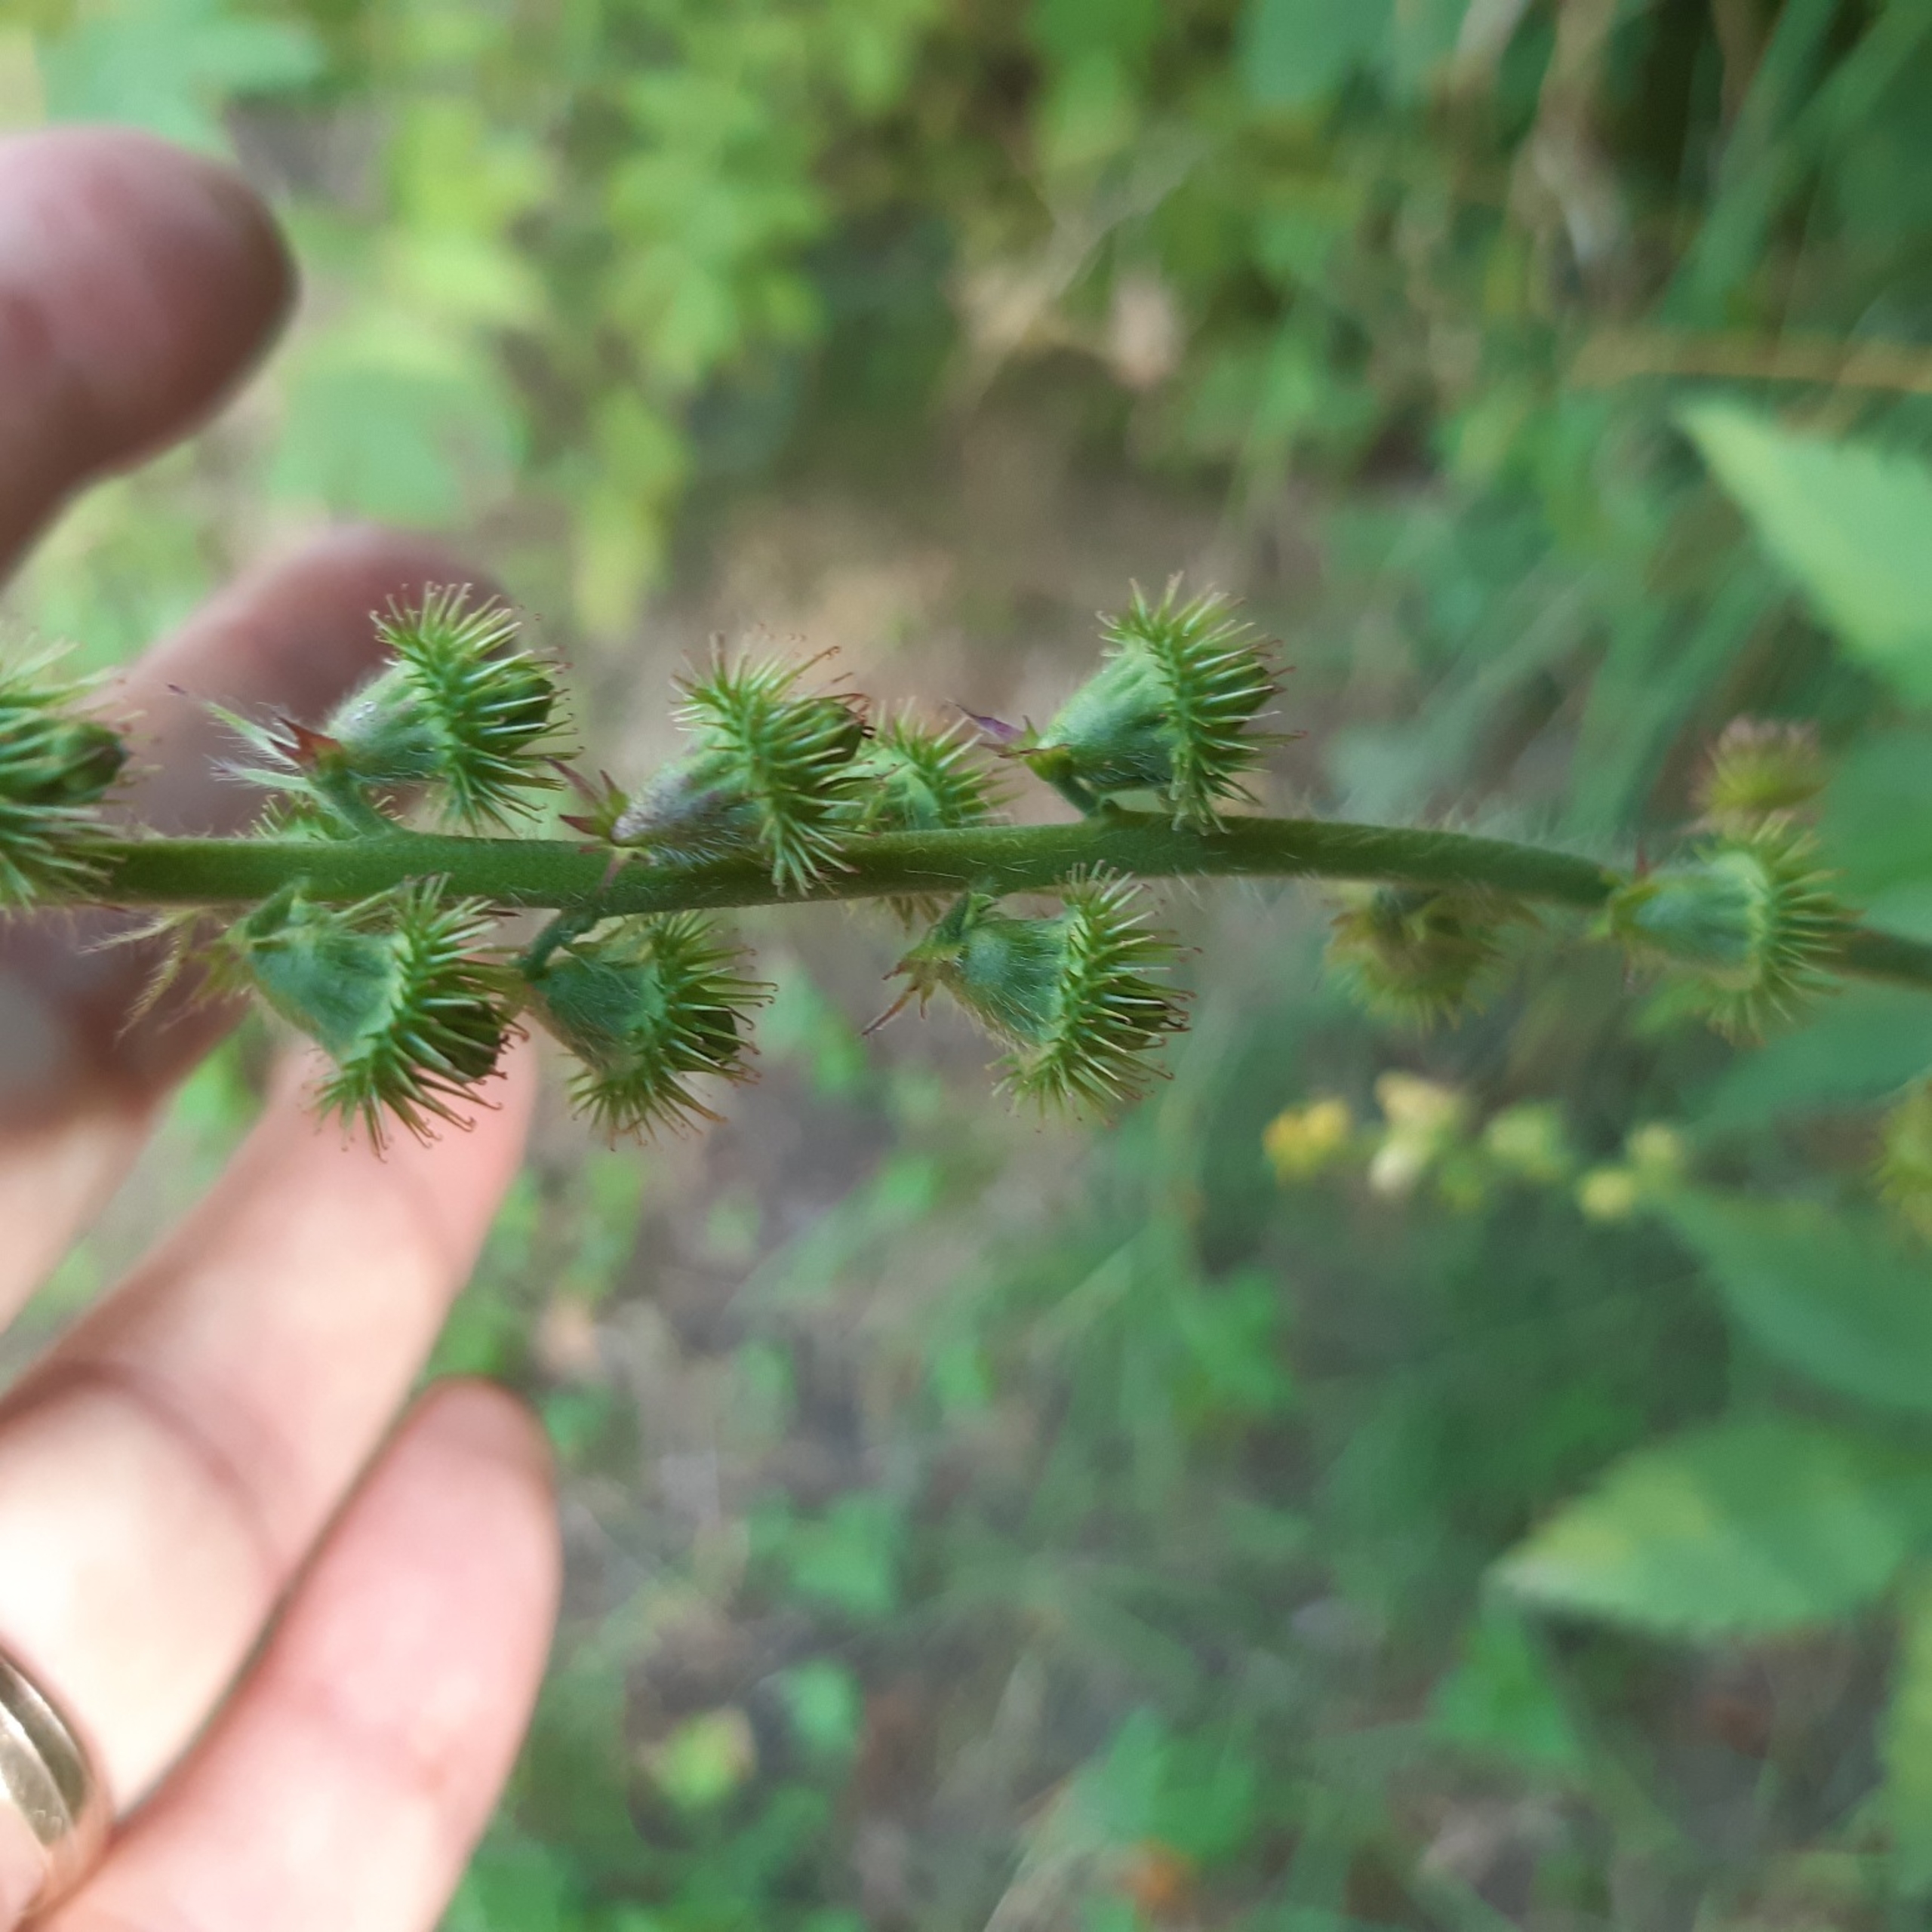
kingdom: Plantae
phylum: Tracheophyta
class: Magnoliopsida
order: Rosales
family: Rosaceae
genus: Agrimonia
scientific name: Agrimonia procera
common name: Vellugtende agermåne
